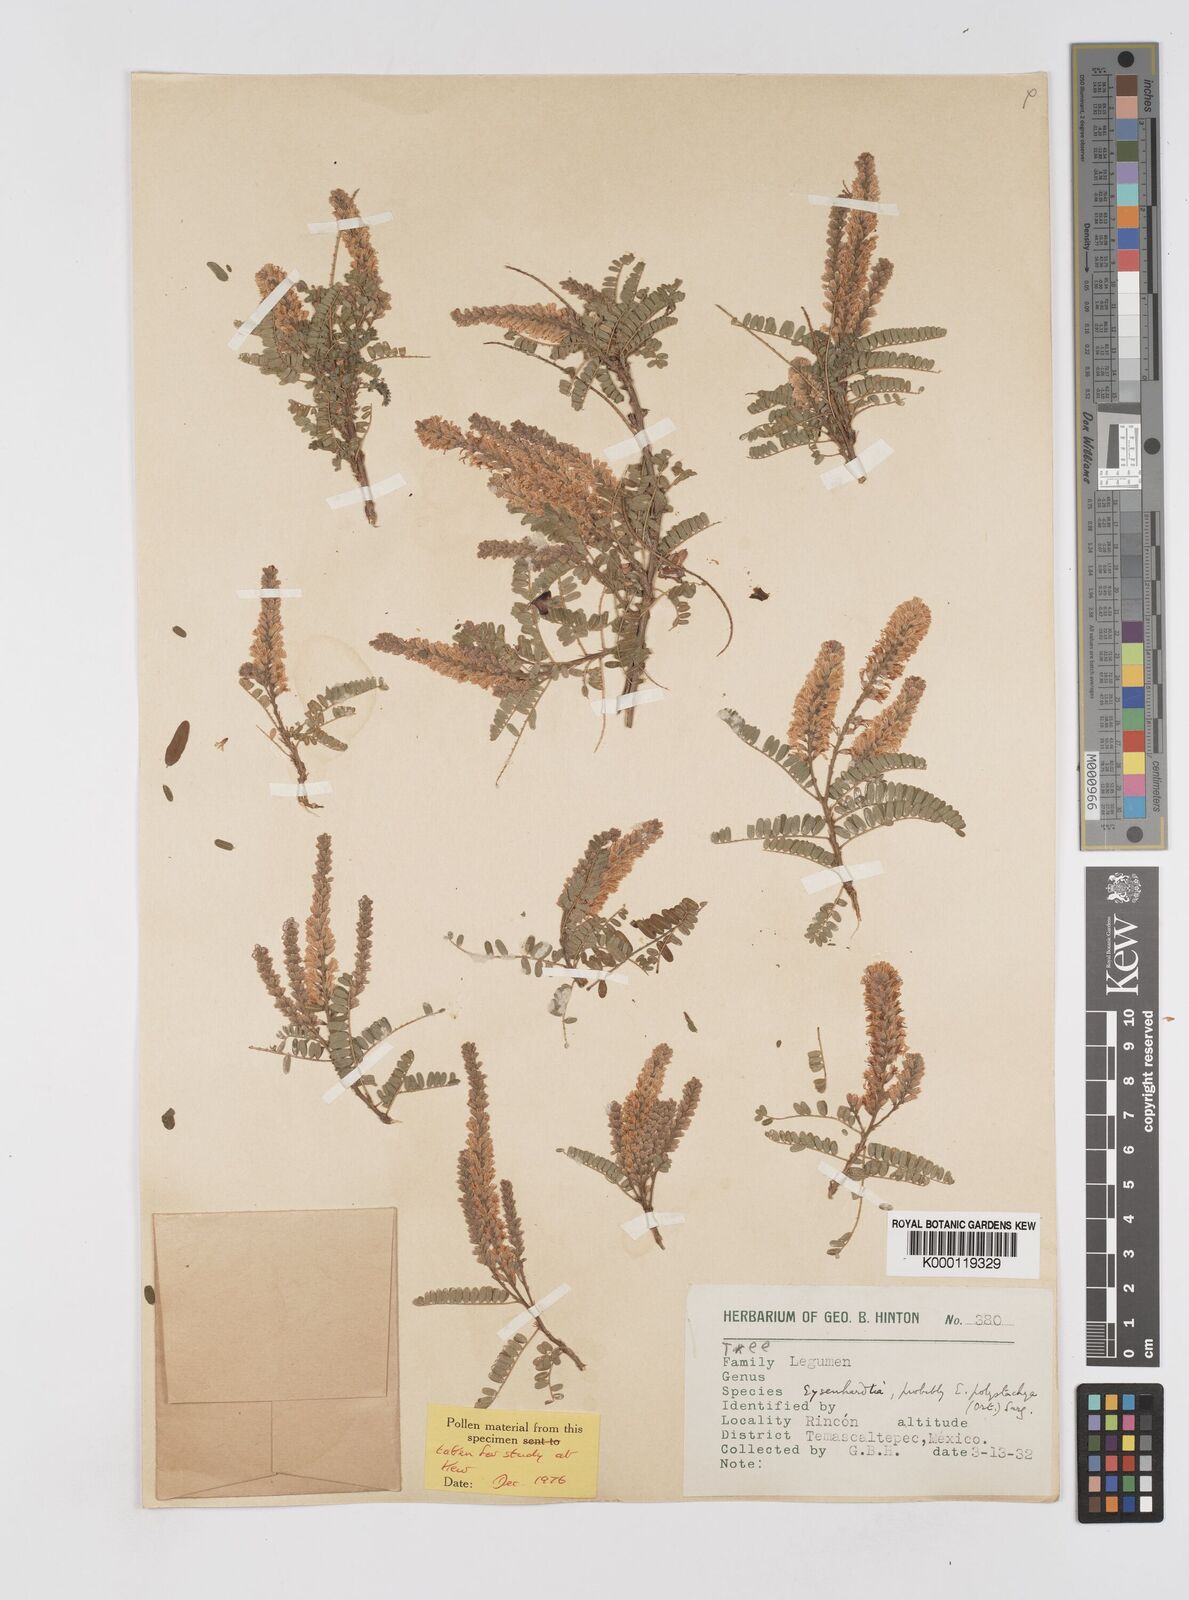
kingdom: Plantae
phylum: Tracheophyta
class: Magnoliopsida
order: Fabales
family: Fabaceae
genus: Eysenhardtia
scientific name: Eysenhardtia polystachya
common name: Kidneywood
